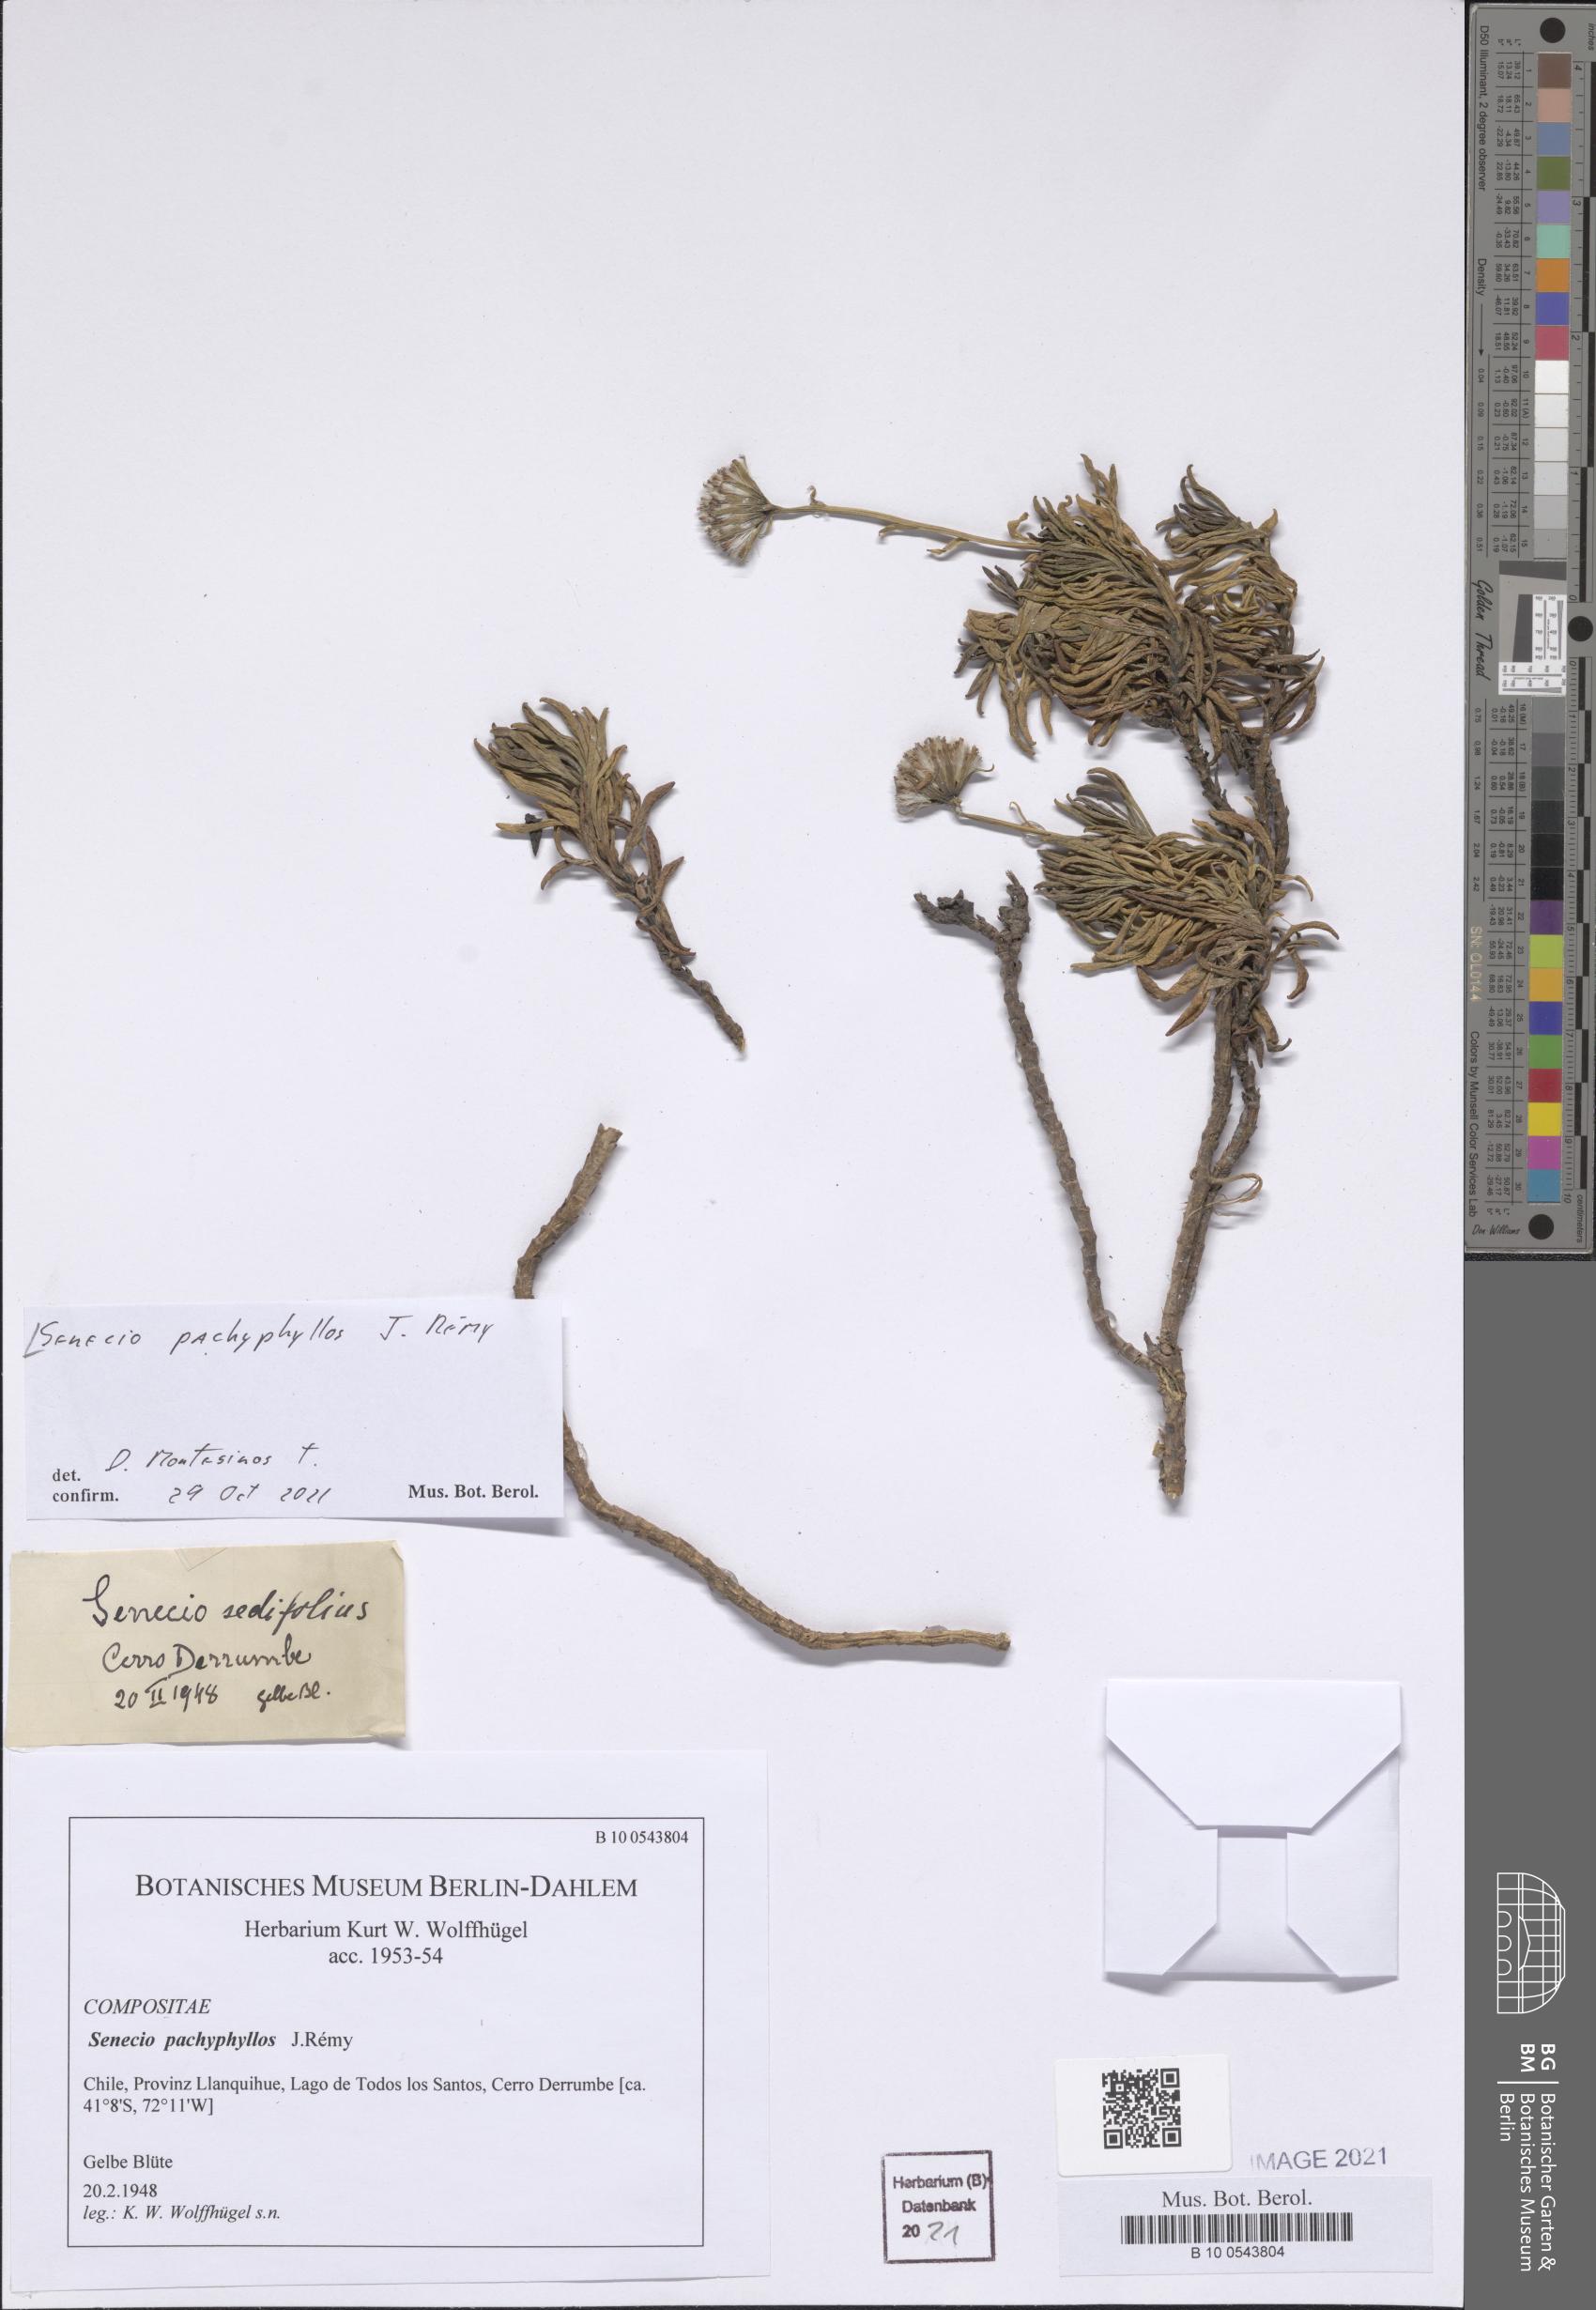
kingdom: Plantae
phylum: Tracheophyta
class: Magnoliopsida
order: Asterales
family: Asteraceae
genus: Senecio
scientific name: Senecio pachyphyllos
